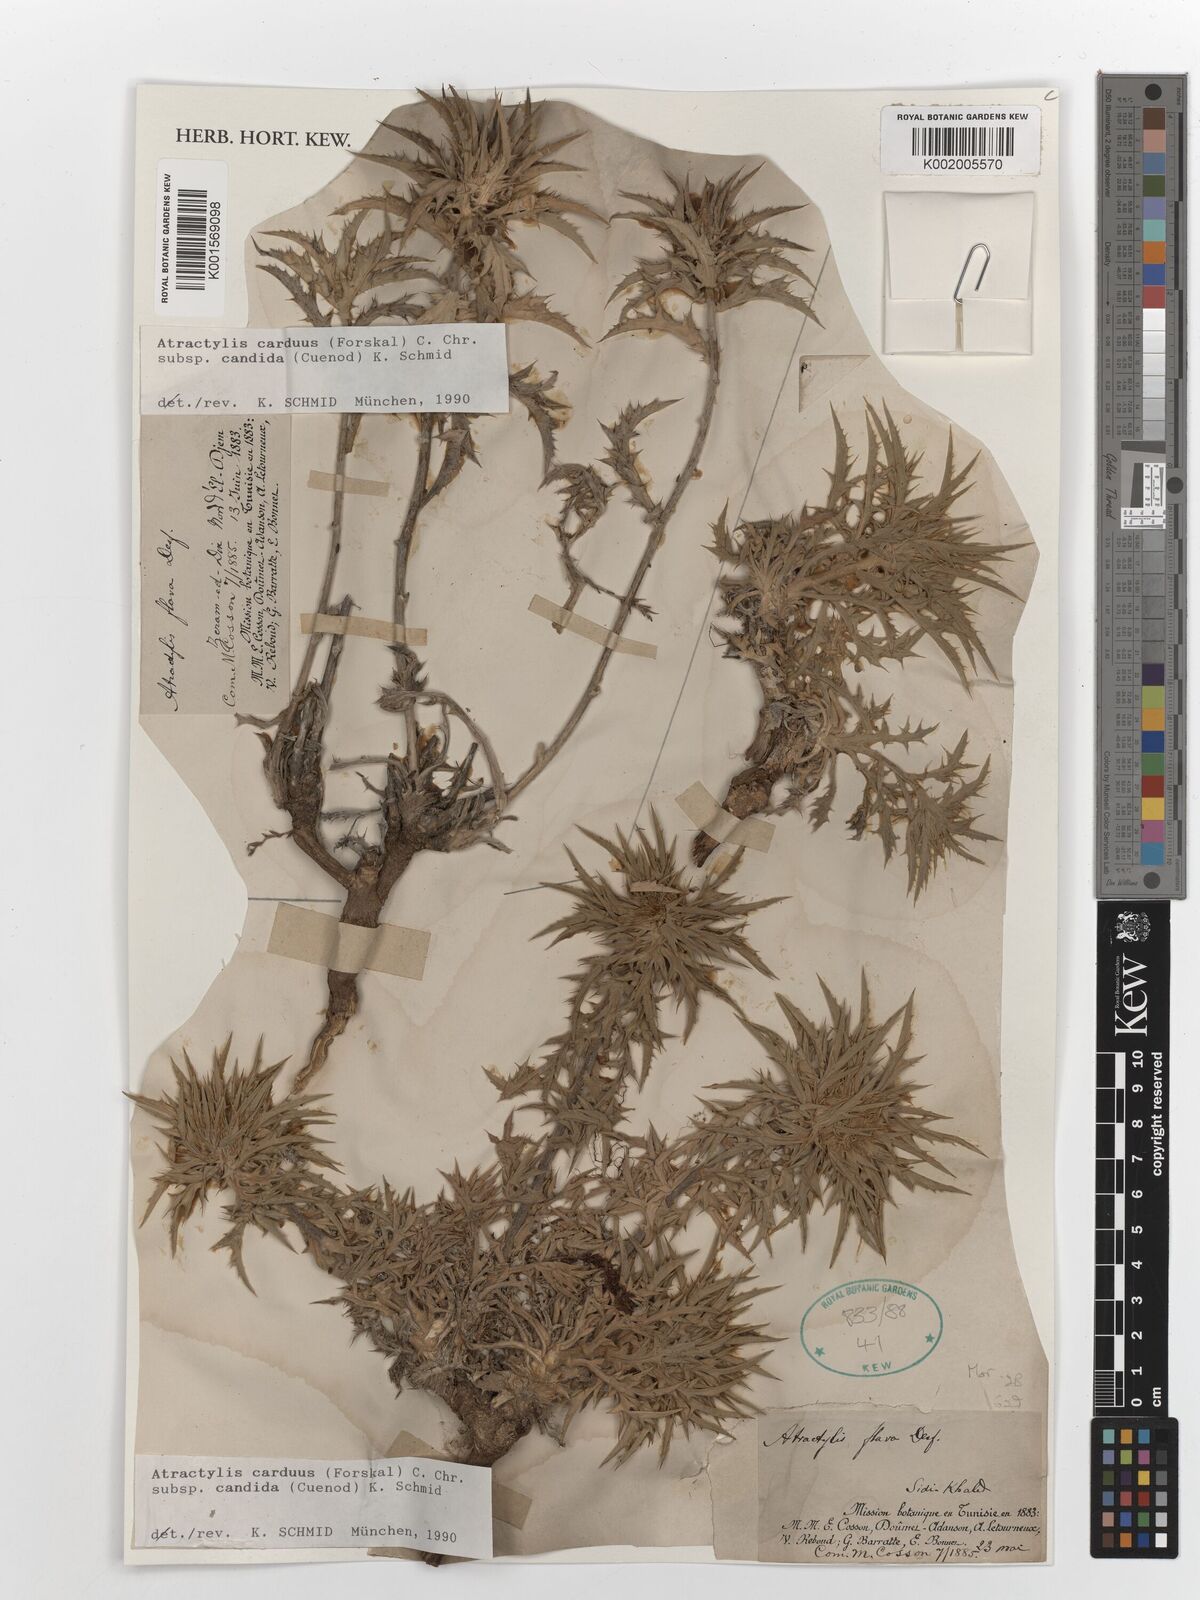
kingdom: Plantae
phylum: Tracheophyta
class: Magnoliopsida
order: Asterales
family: Asteraceae
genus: Atractylis
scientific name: Atractylis carduus
